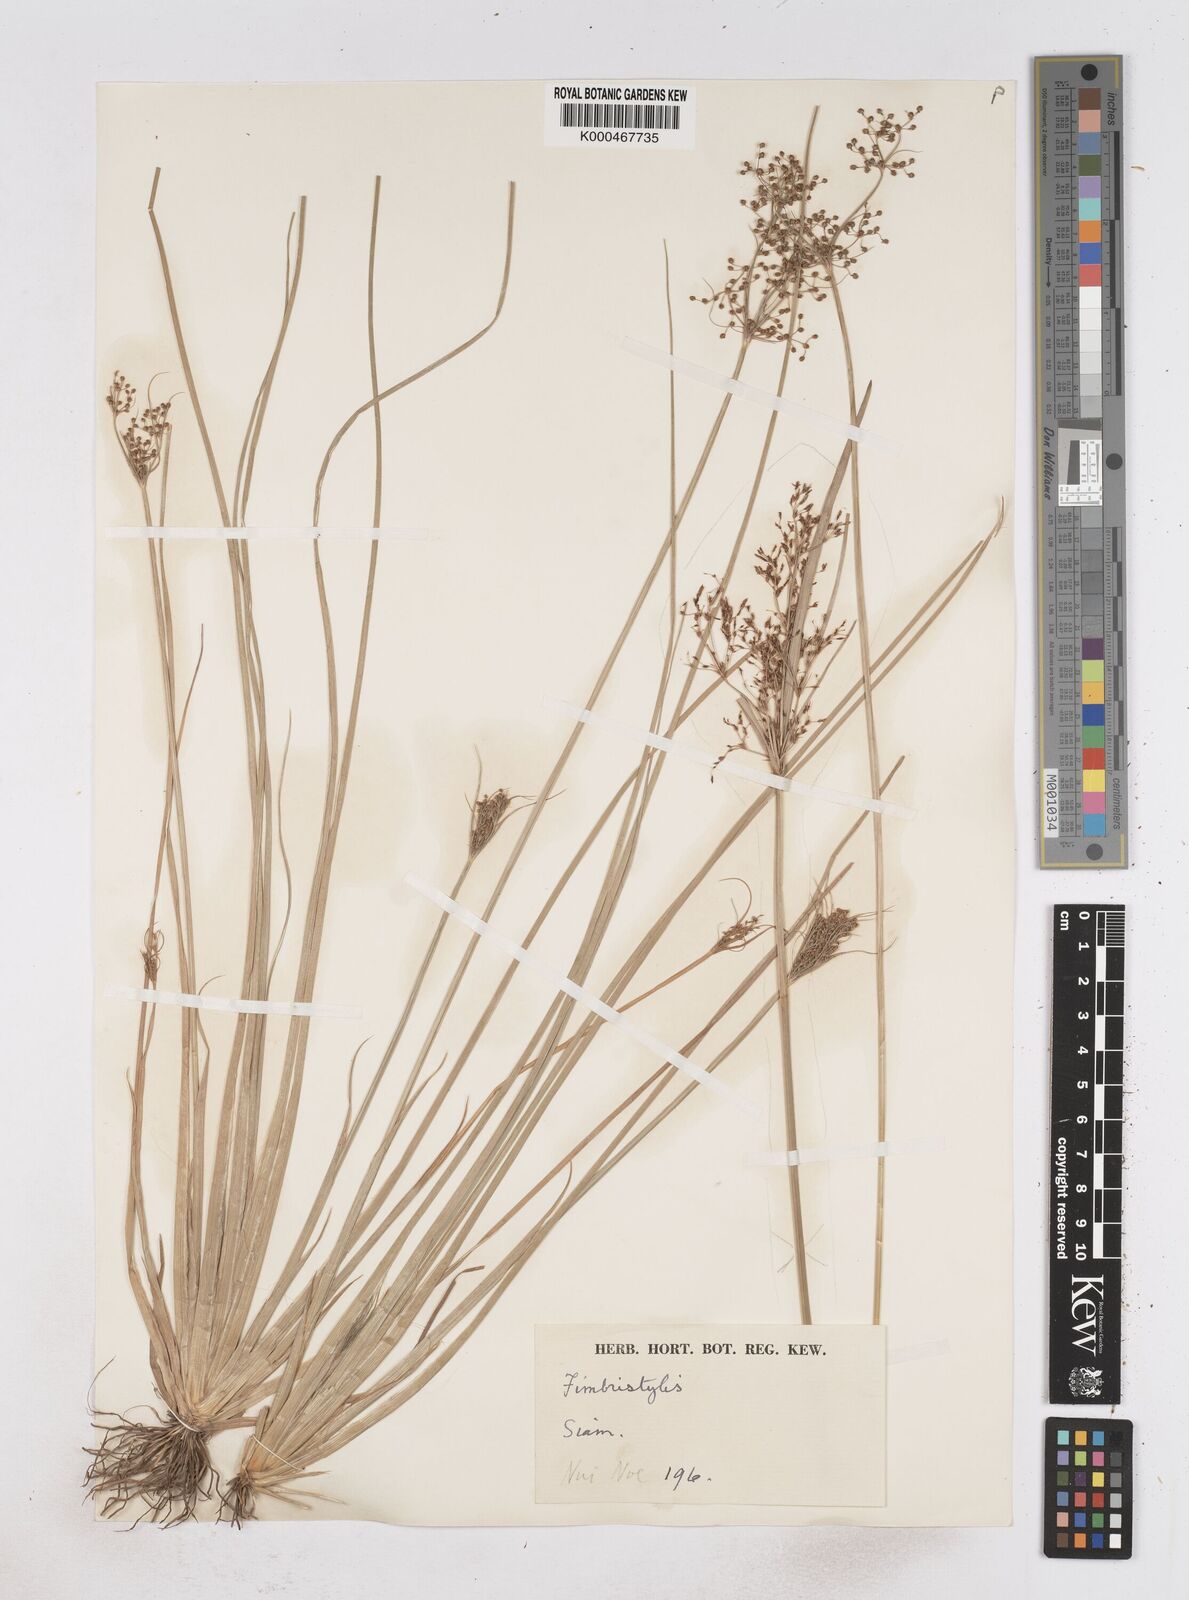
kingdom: Plantae
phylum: Tracheophyta
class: Liliopsida
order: Poales
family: Cyperaceae
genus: Fimbristylis
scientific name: Fimbristylis quinquangularis
